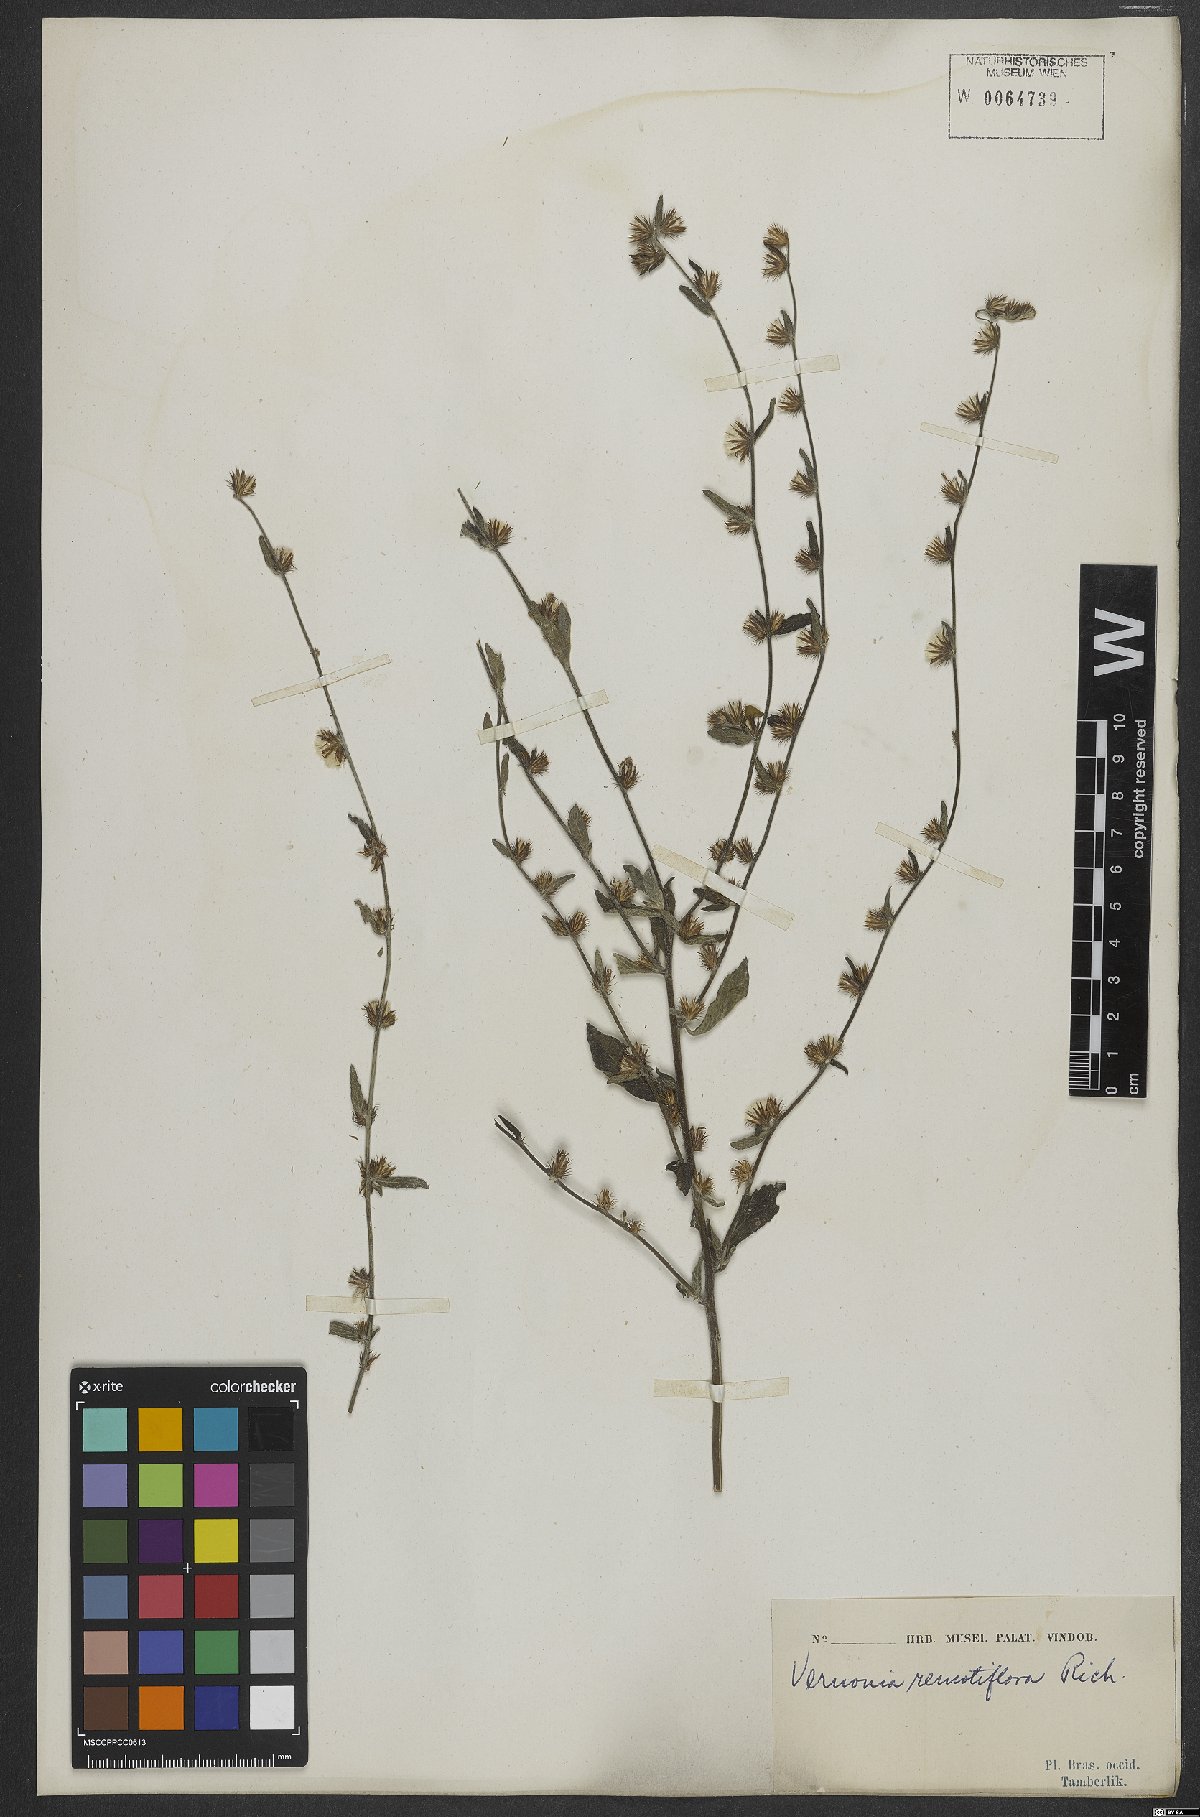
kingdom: Plantae
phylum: Tracheophyta
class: Magnoliopsida
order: Asterales
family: Asteraceae
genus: Lepidaploa
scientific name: Lepidaploa remotiflora
